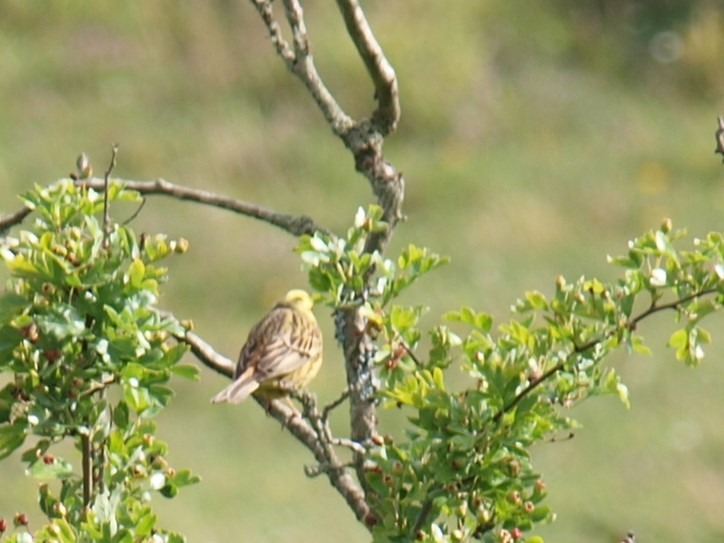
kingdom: Animalia
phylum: Chordata
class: Aves
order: Passeriformes
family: Emberizidae
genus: Emberiza
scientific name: Emberiza citrinella
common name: Gulspurv
